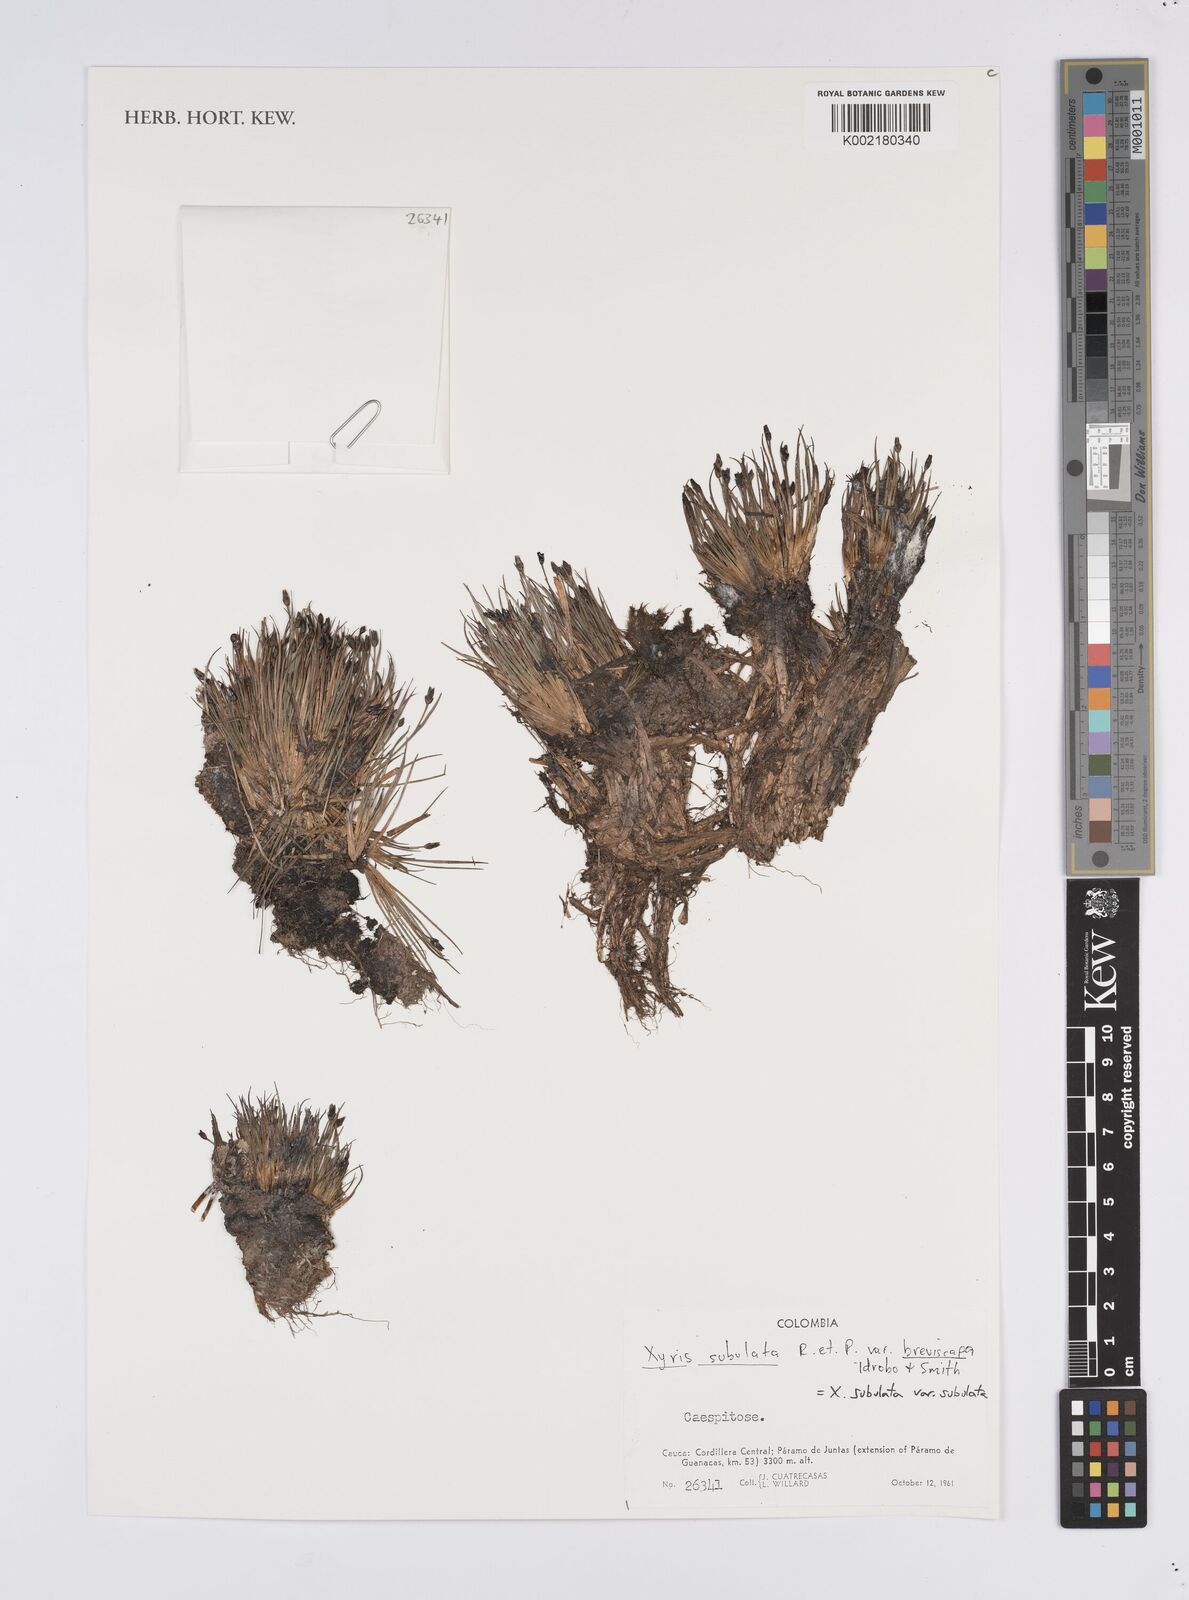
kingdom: Plantae
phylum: Tracheophyta
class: Liliopsida
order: Poales
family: Xyridaceae
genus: Xyris
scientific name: Xyris subulata
